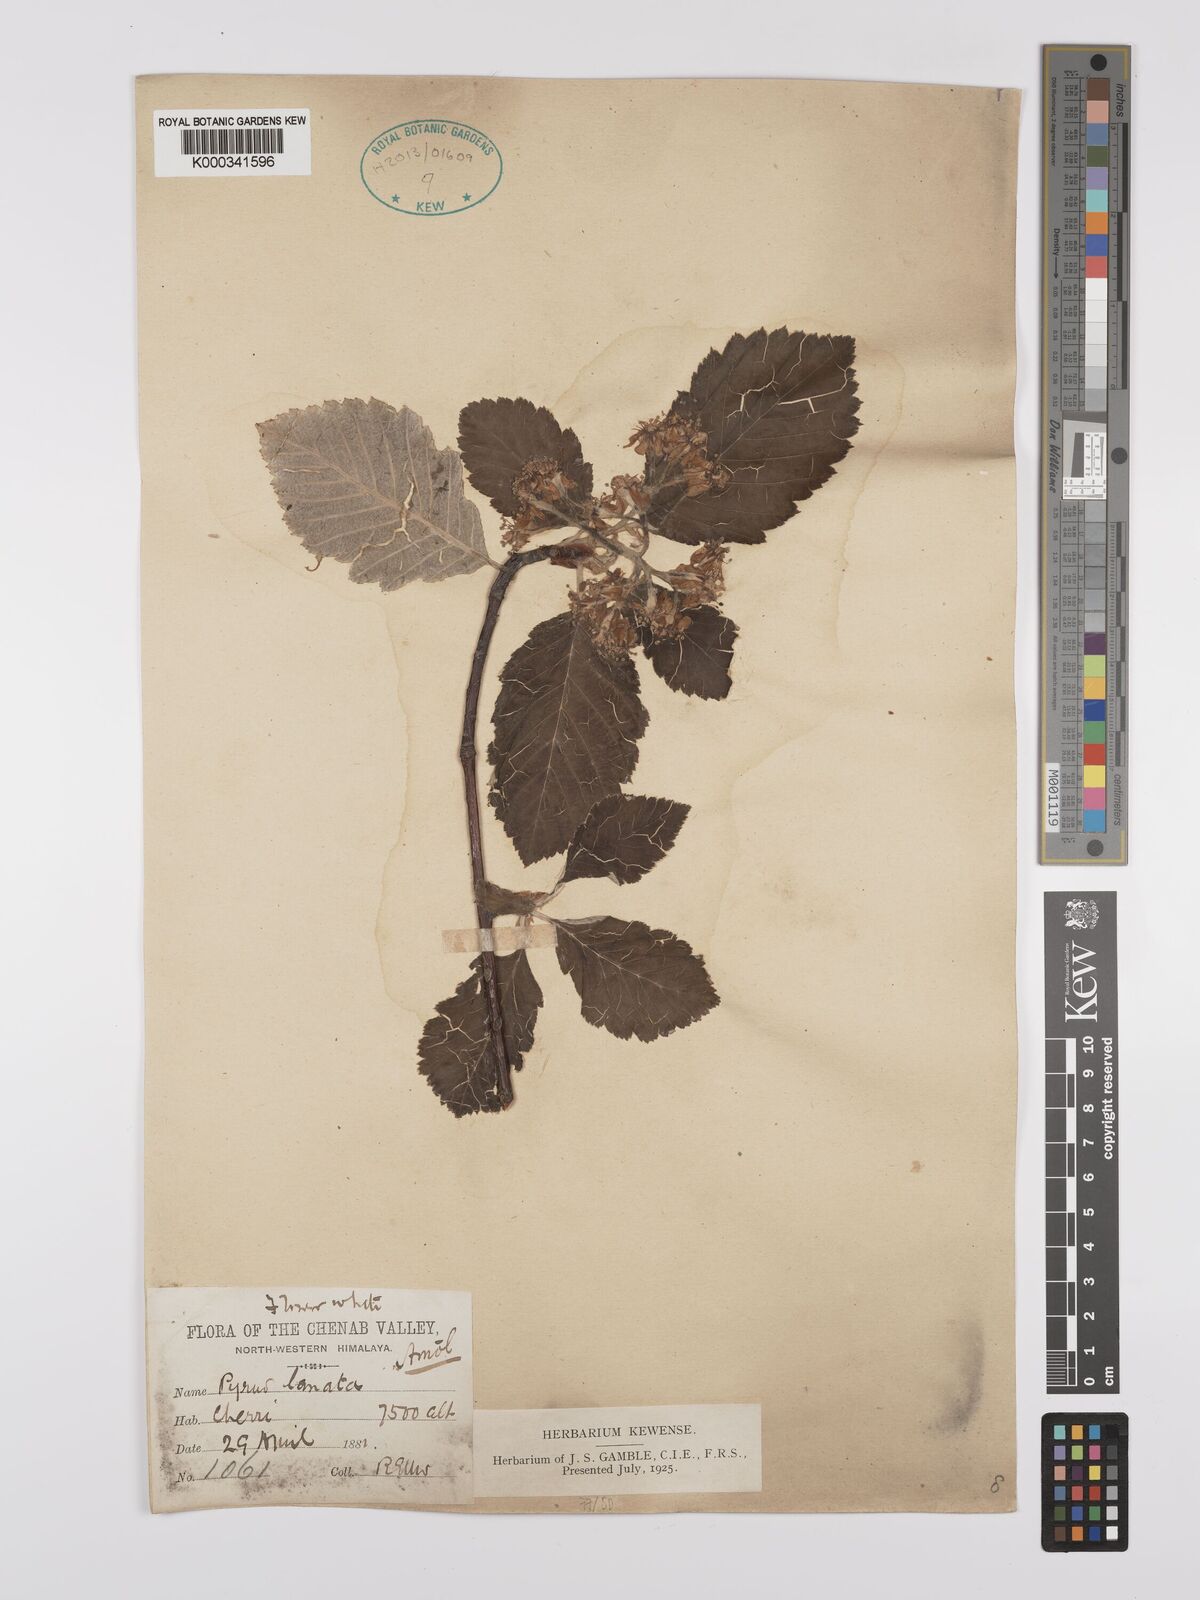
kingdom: Plantae
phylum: Tracheophyta
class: Magnoliopsida
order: Rosales
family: Rosaceae
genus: Sorbus
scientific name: Sorbus lanata
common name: Hairy rowan
